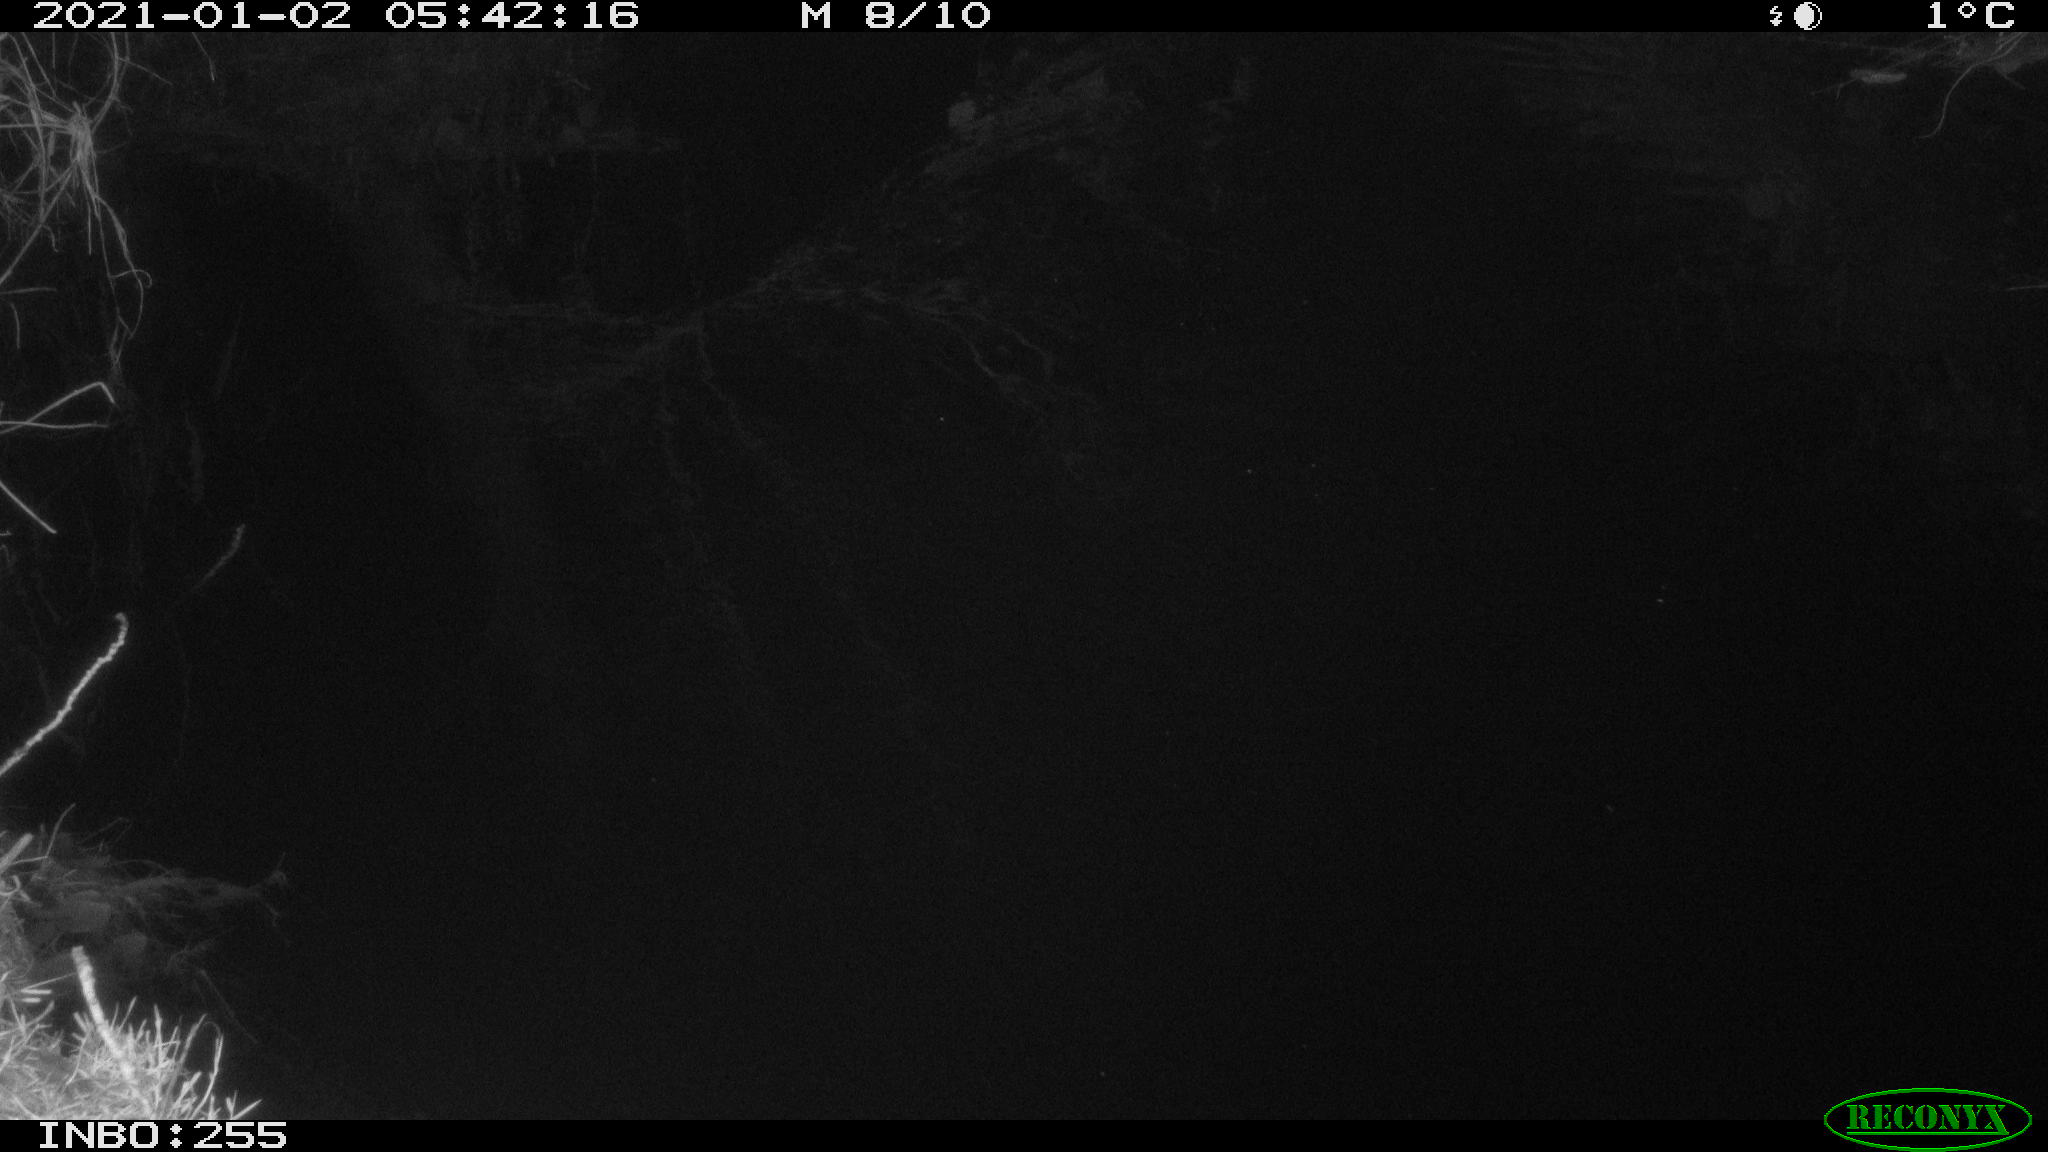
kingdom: Animalia
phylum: Chordata
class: Mammalia
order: Rodentia
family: Muridae
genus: Rattus
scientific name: Rattus norvegicus
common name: Brown rat
